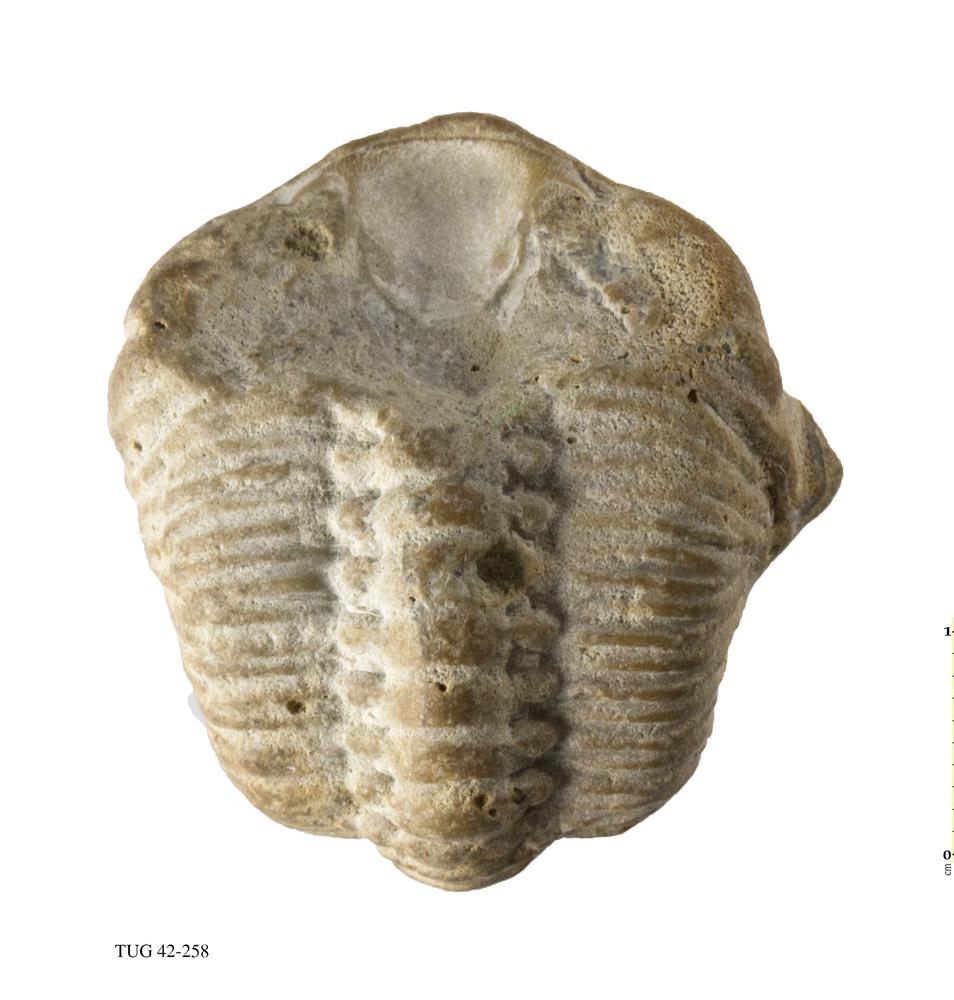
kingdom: Animalia
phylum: Arthropoda
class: Trilobita
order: Phacopida
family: Phacopidae
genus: Phacops
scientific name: Phacops
